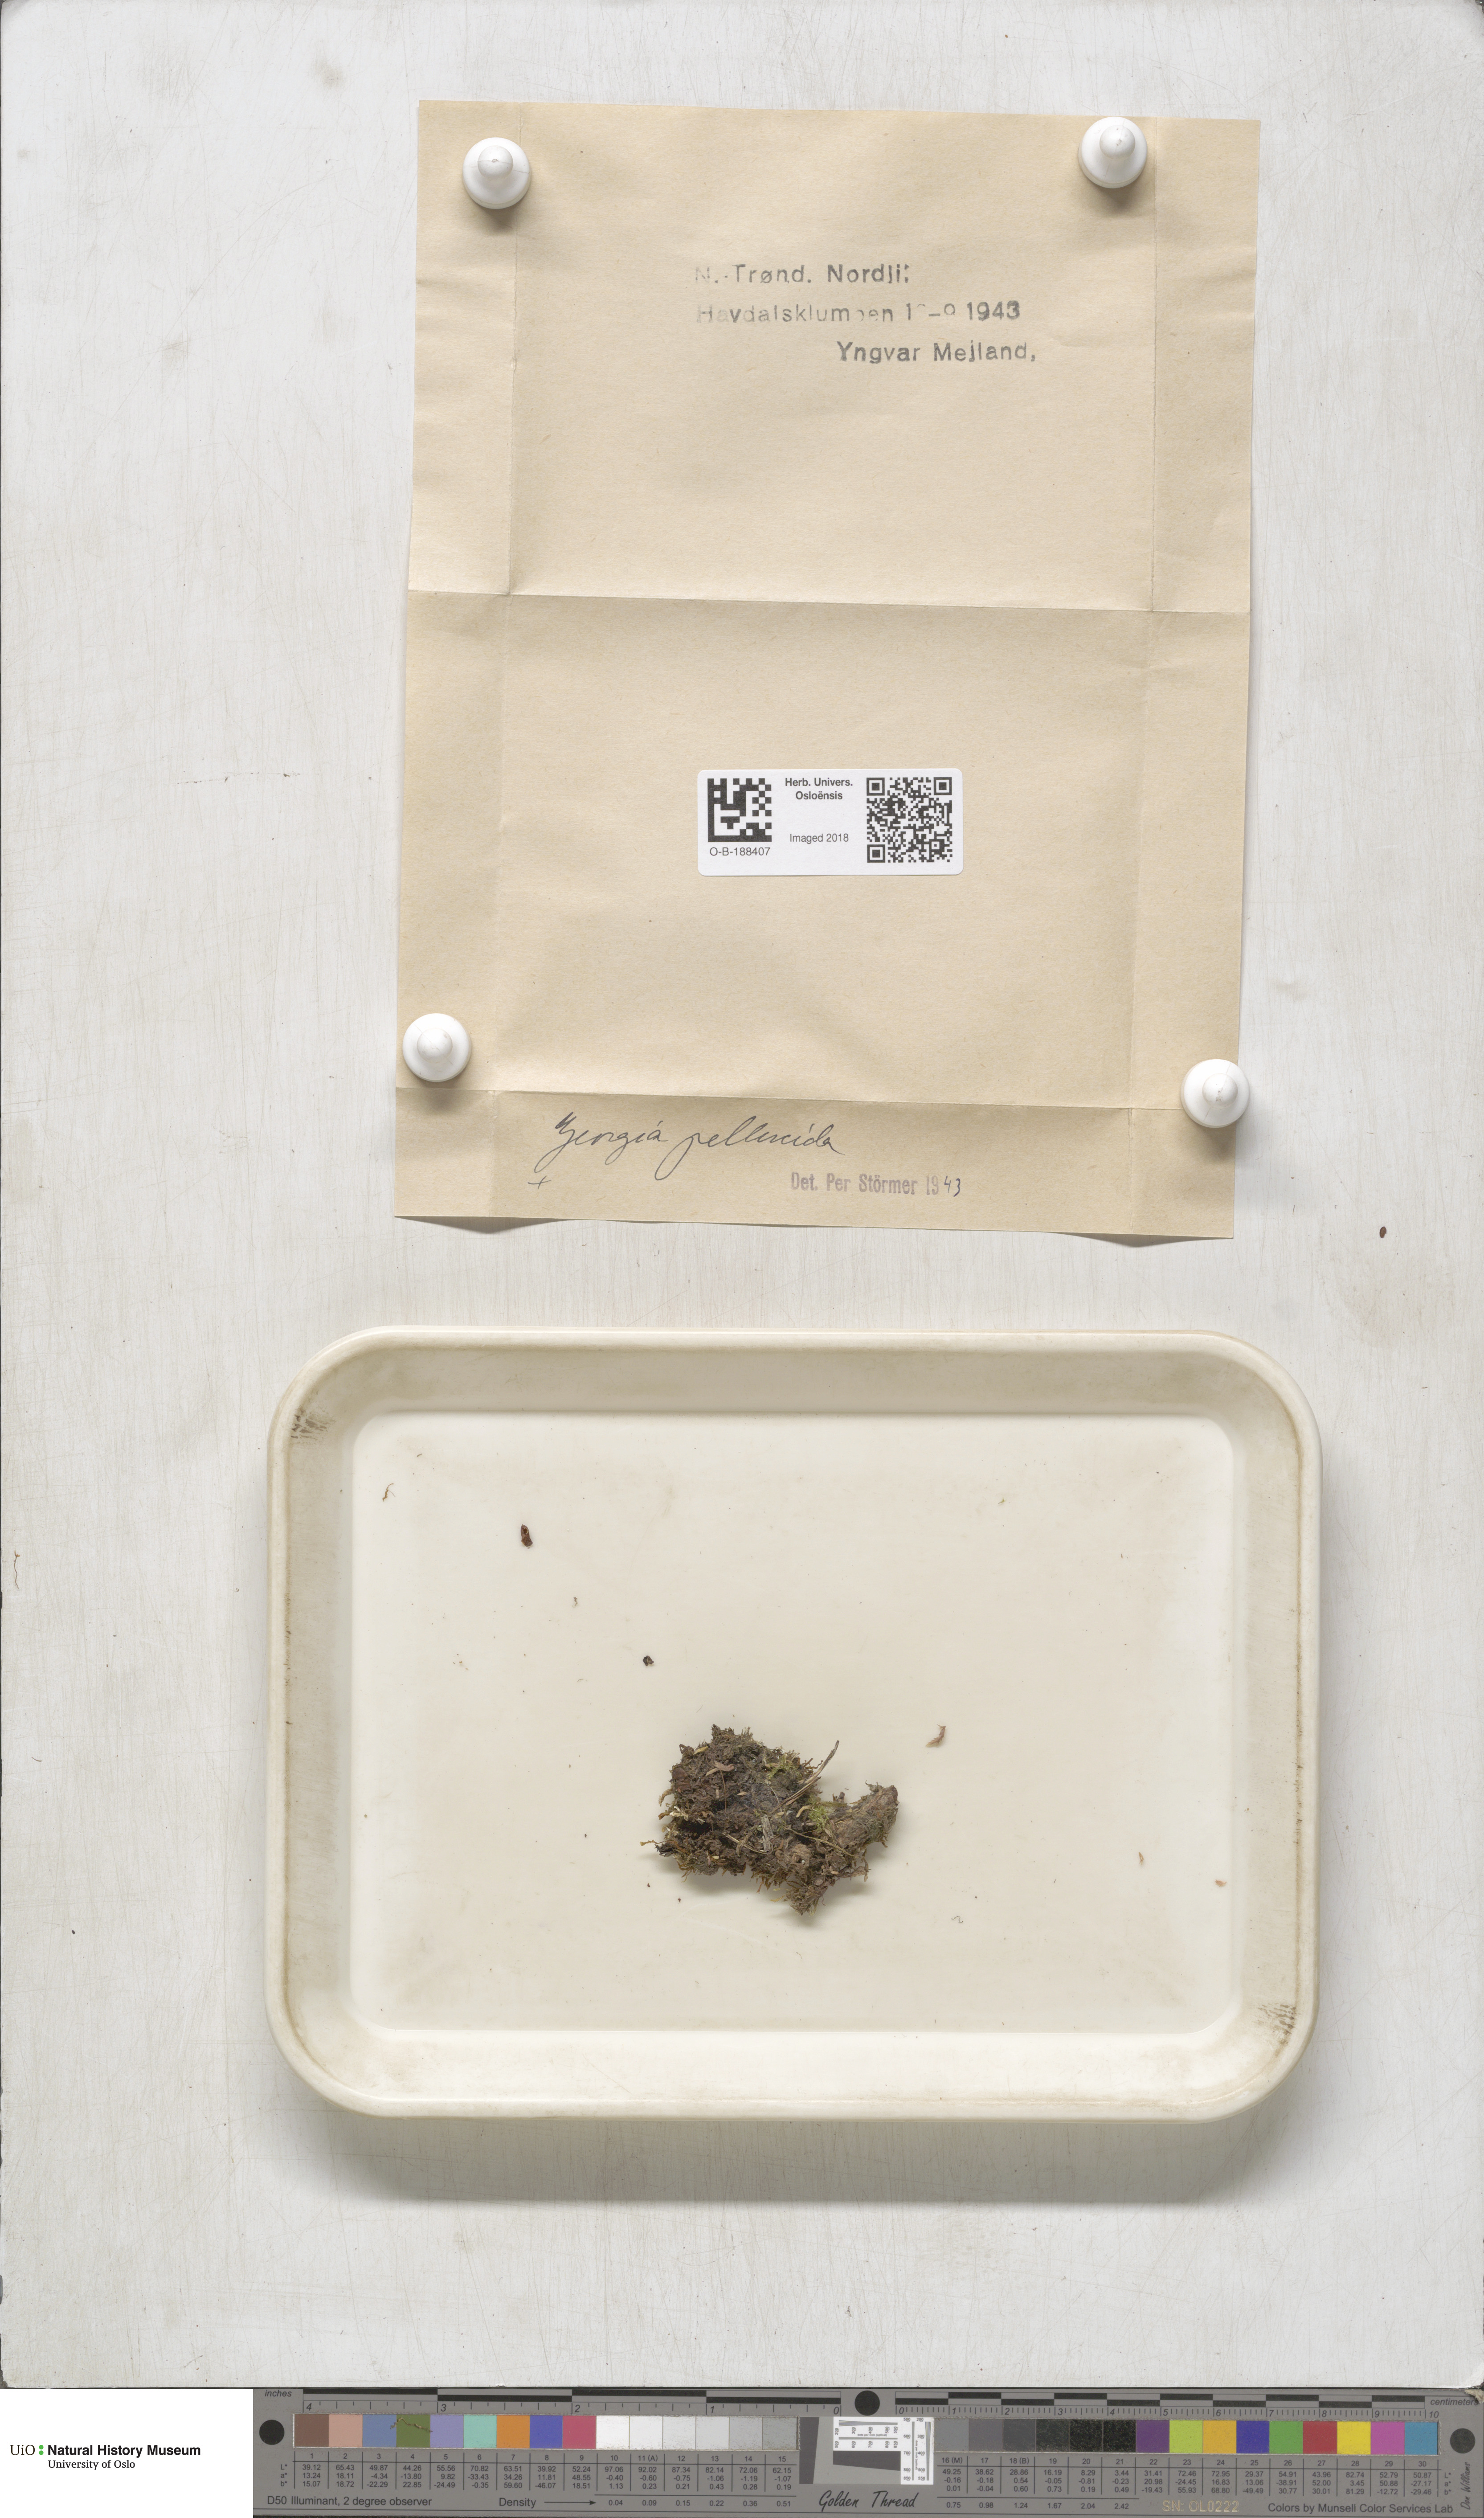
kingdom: Plantae
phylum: Bryophyta
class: Polytrichopsida
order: Tetraphidales
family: Tetraphidaceae
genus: Tetraphis
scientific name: Tetraphis pellucida
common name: Common four-toothed moss
